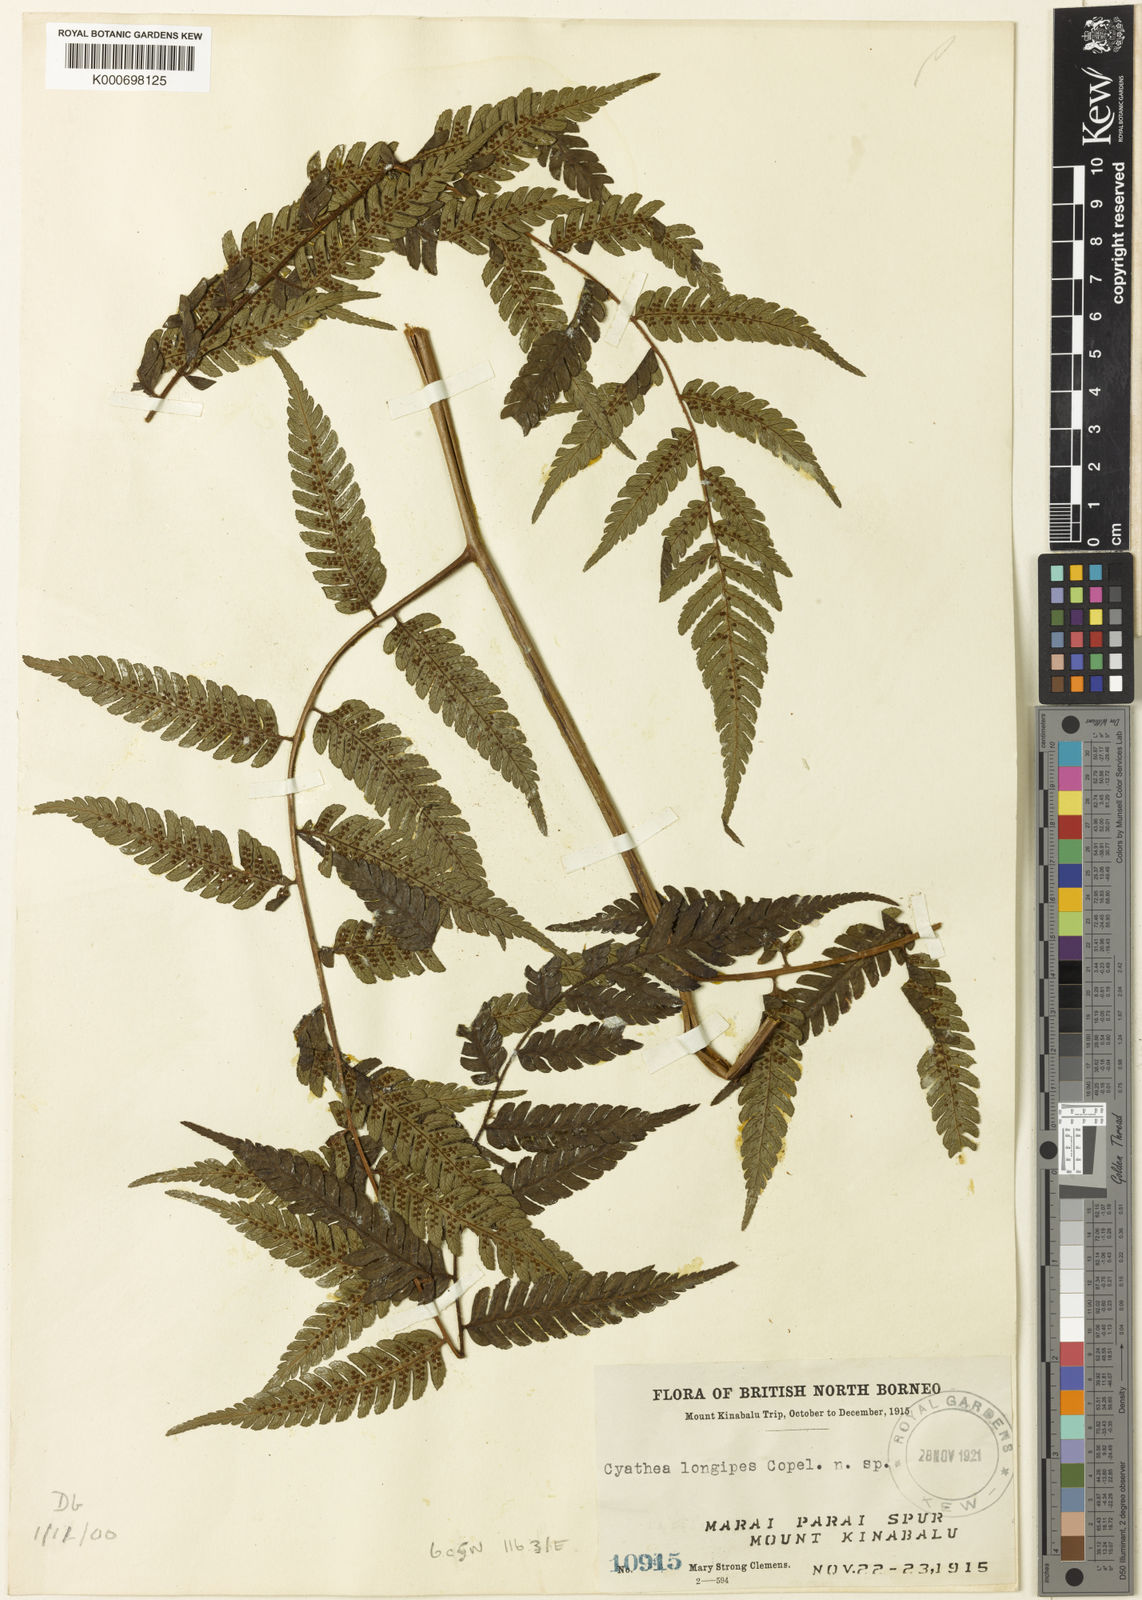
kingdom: Plantae
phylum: Tracheophyta
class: Polypodiopsida
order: Cyatheales
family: Cyatheaceae
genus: Alsophila
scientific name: Alsophila longipes
